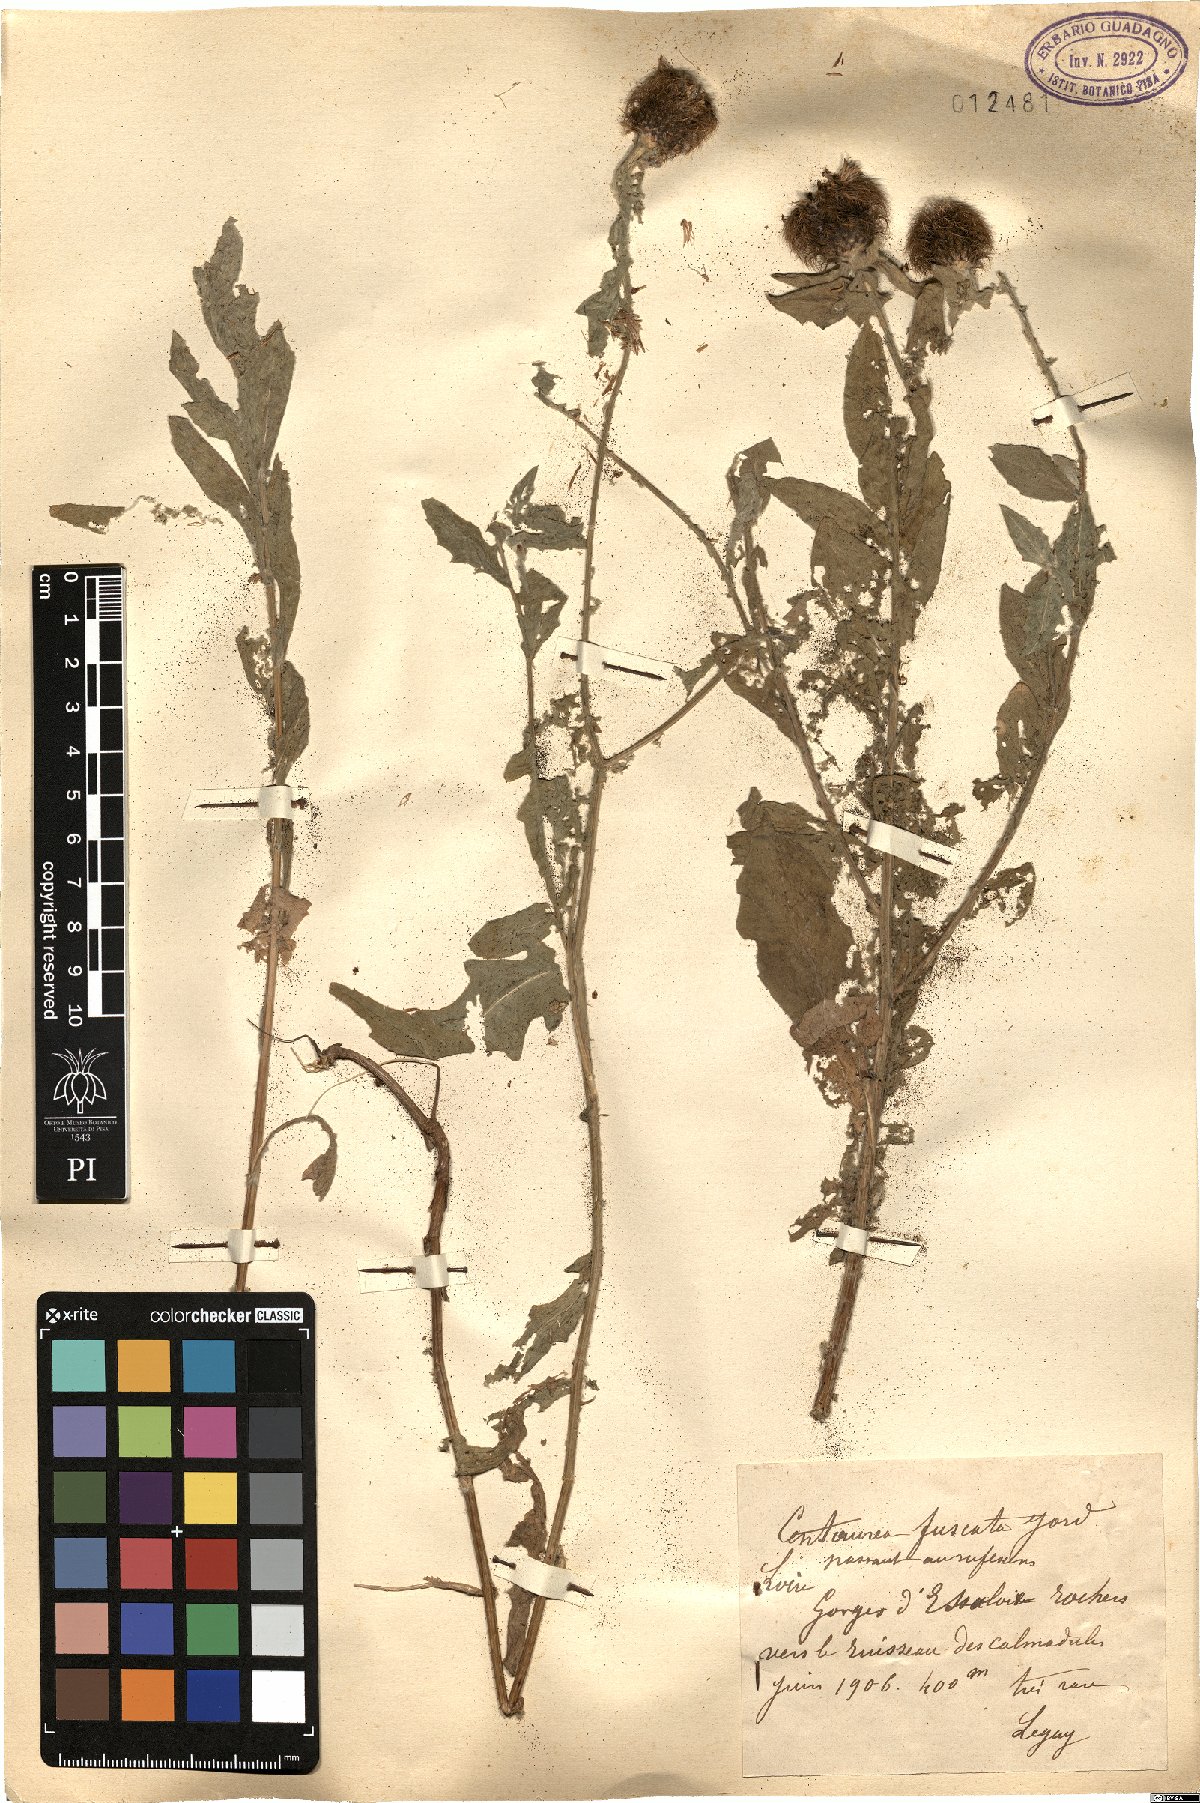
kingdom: Plantae
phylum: Tracheophyta
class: Magnoliopsida
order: Asterales
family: Asteraceae
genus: Centaurea
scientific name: Centaurea pectinata
